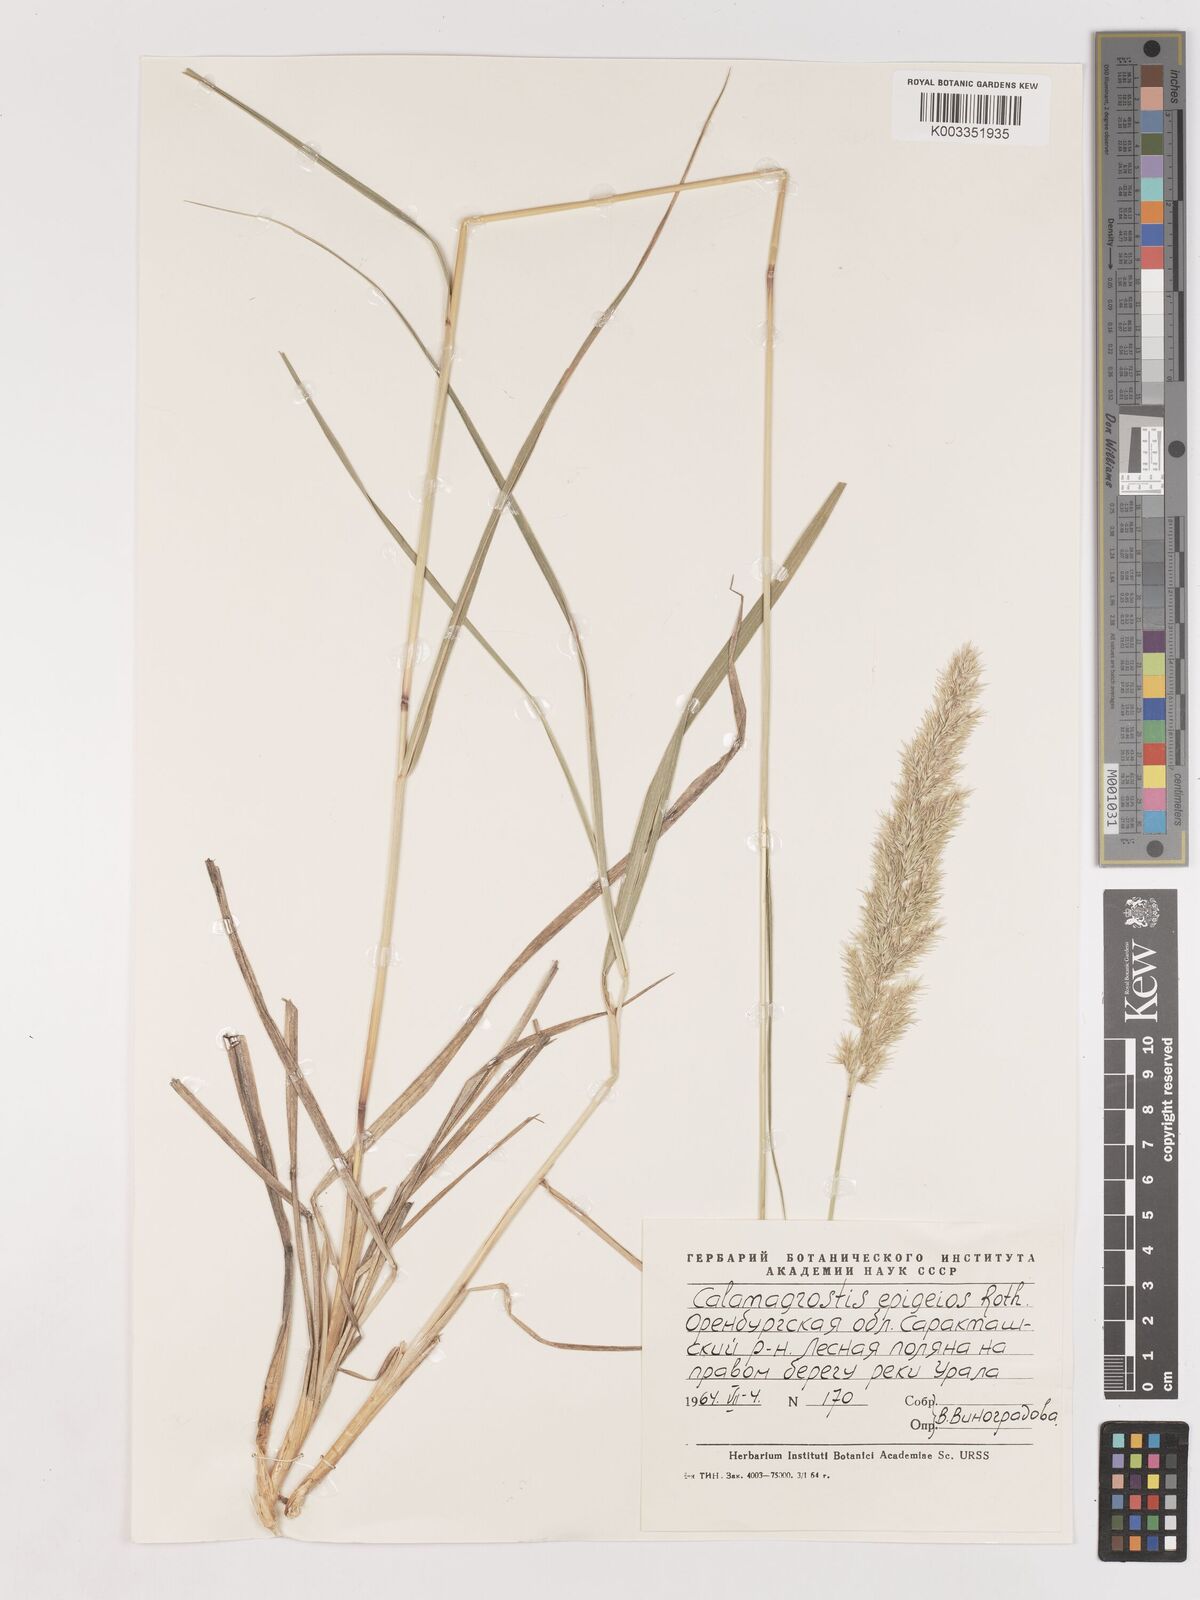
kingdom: Plantae
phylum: Tracheophyta
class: Liliopsida
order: Poales
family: Poaceae
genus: Calamagrostis
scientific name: Calamagrostis epigejos
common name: Wood small-reed
